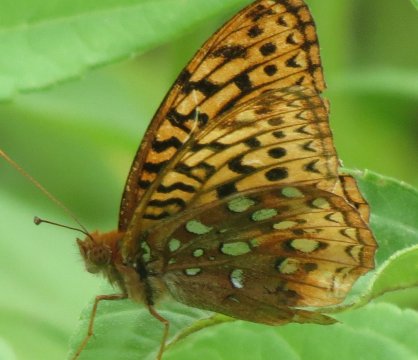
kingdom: Animalia
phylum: Arthropoda
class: Insecta
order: Lepidoptera
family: Nymphalidae
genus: Speyeria
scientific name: Speyeria cybele
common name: Great Spangled Fritillary
